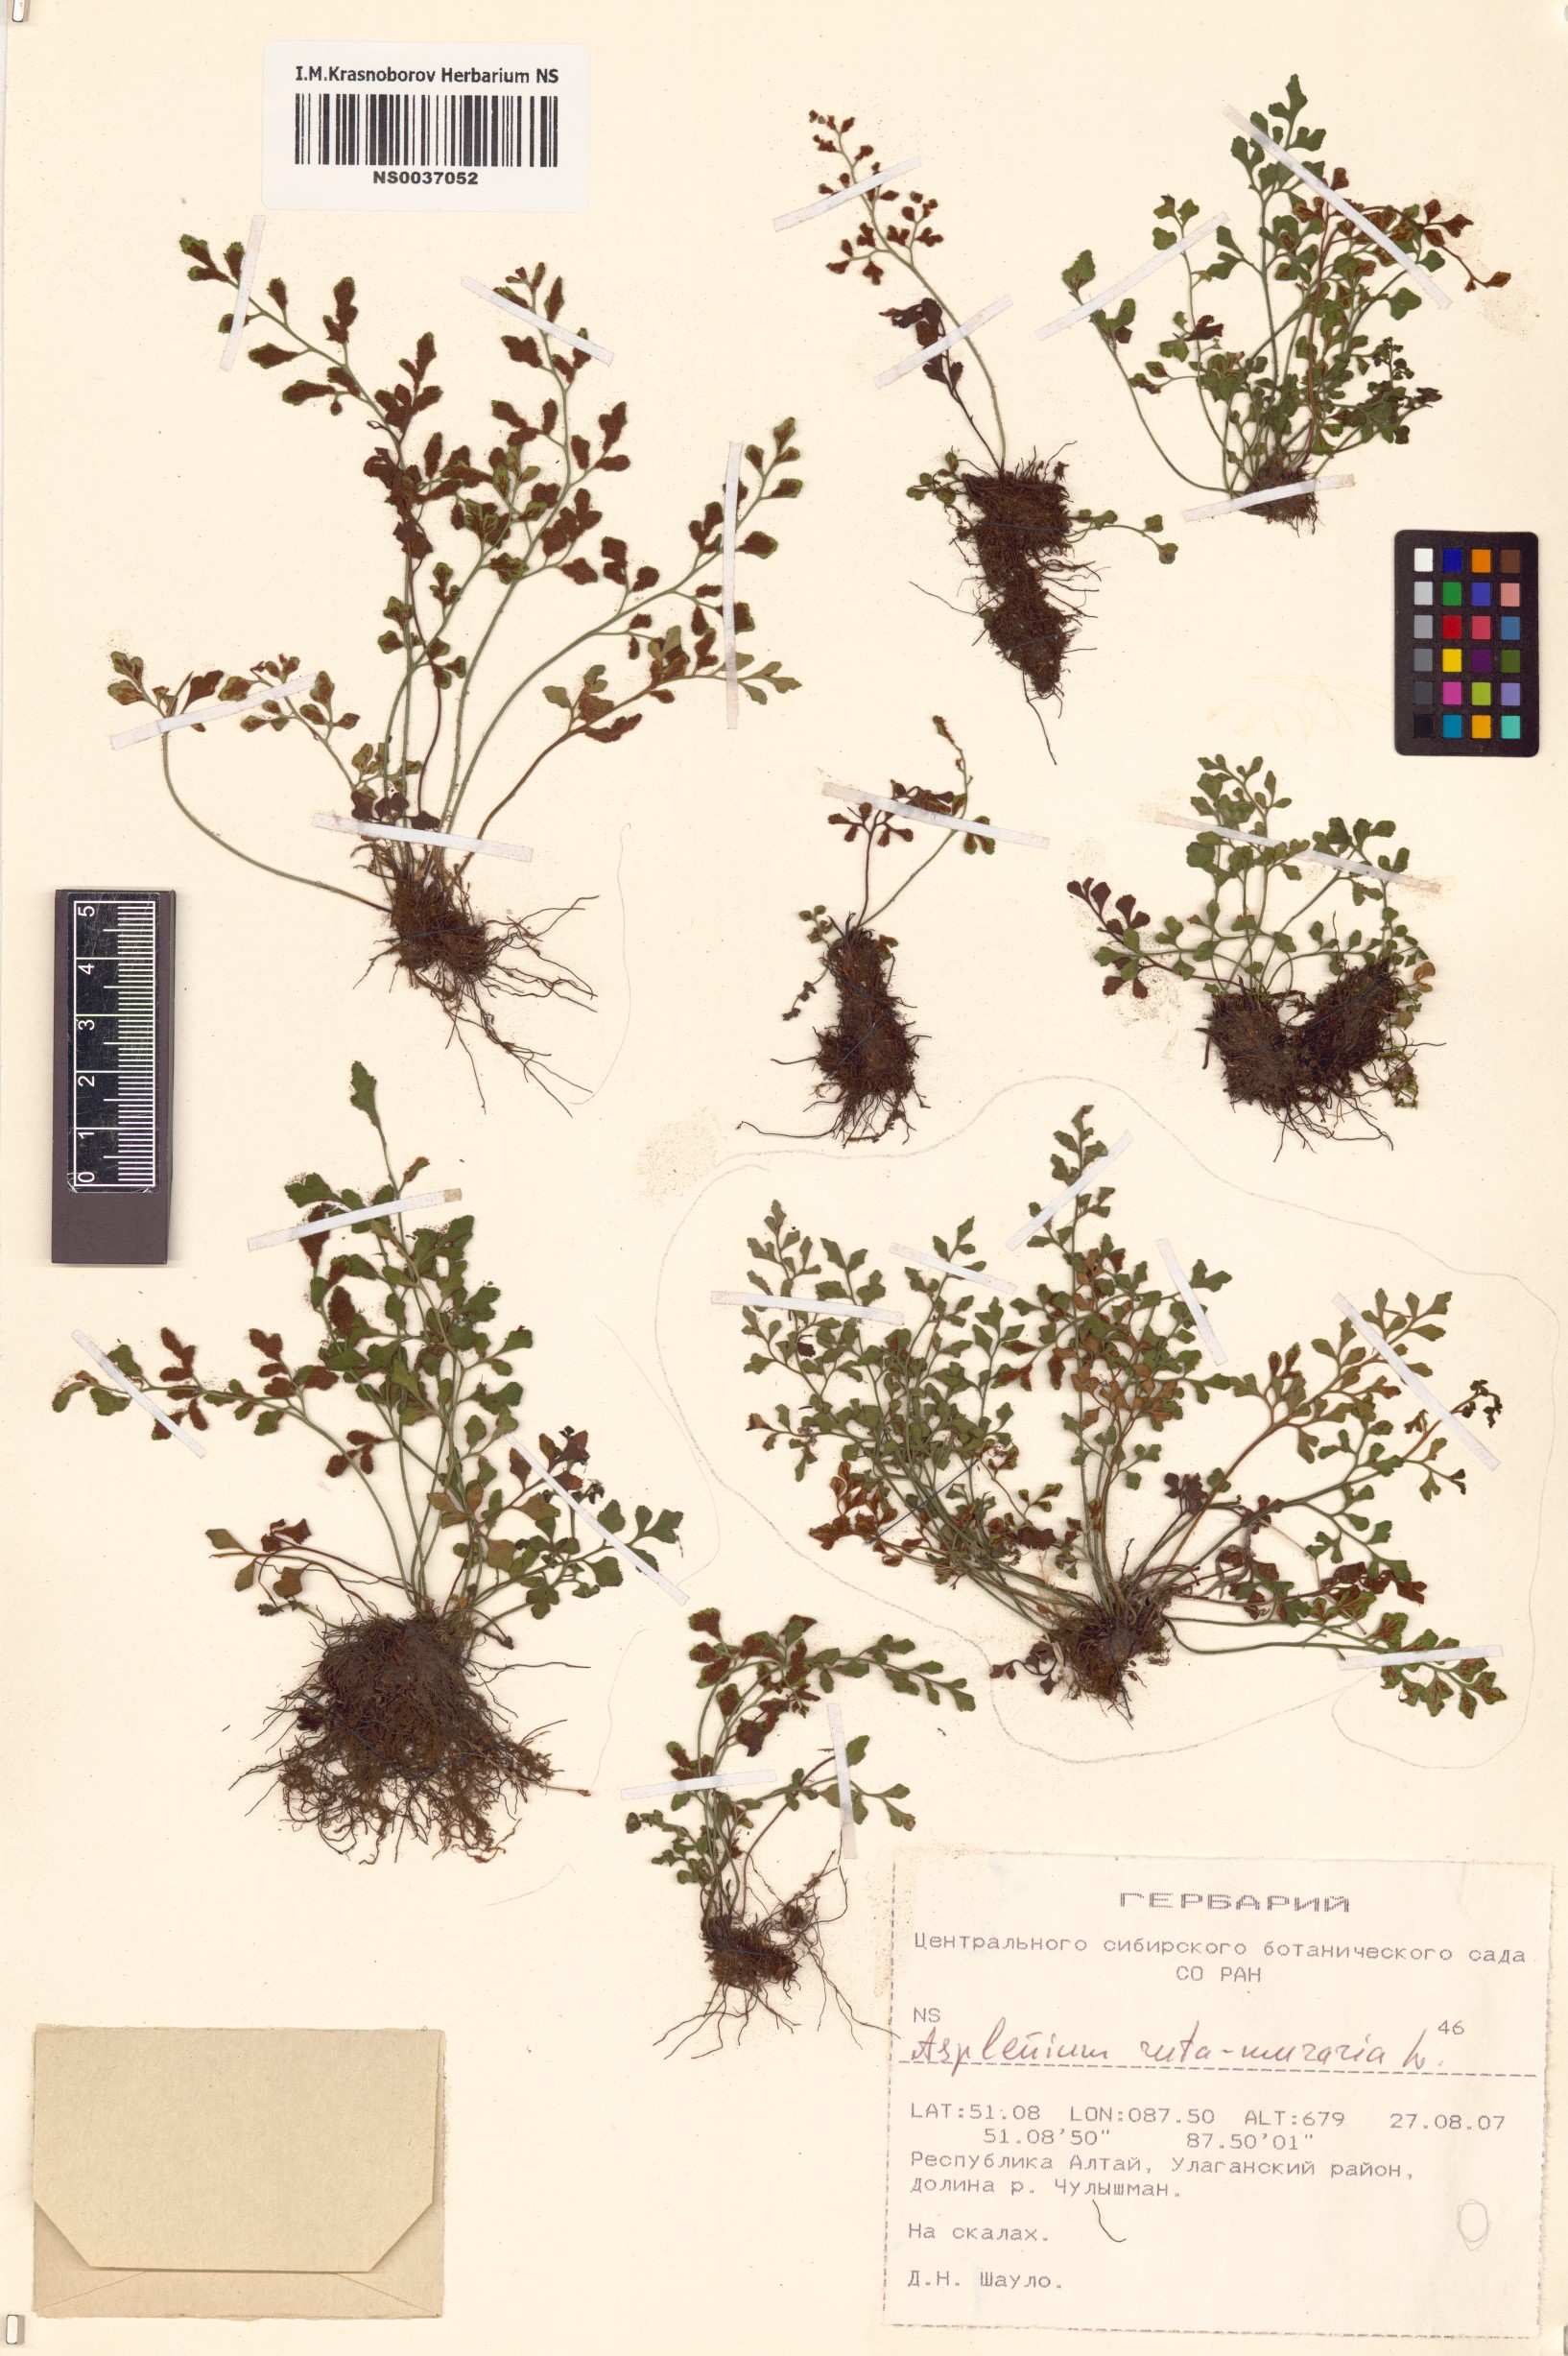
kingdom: Plantae
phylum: Tracheophyta
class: Polypodiopsida
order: Polypodiales
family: Aspleniaceae
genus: Asplenium
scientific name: Asplenium ruta-muraria
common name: Wall-rue
